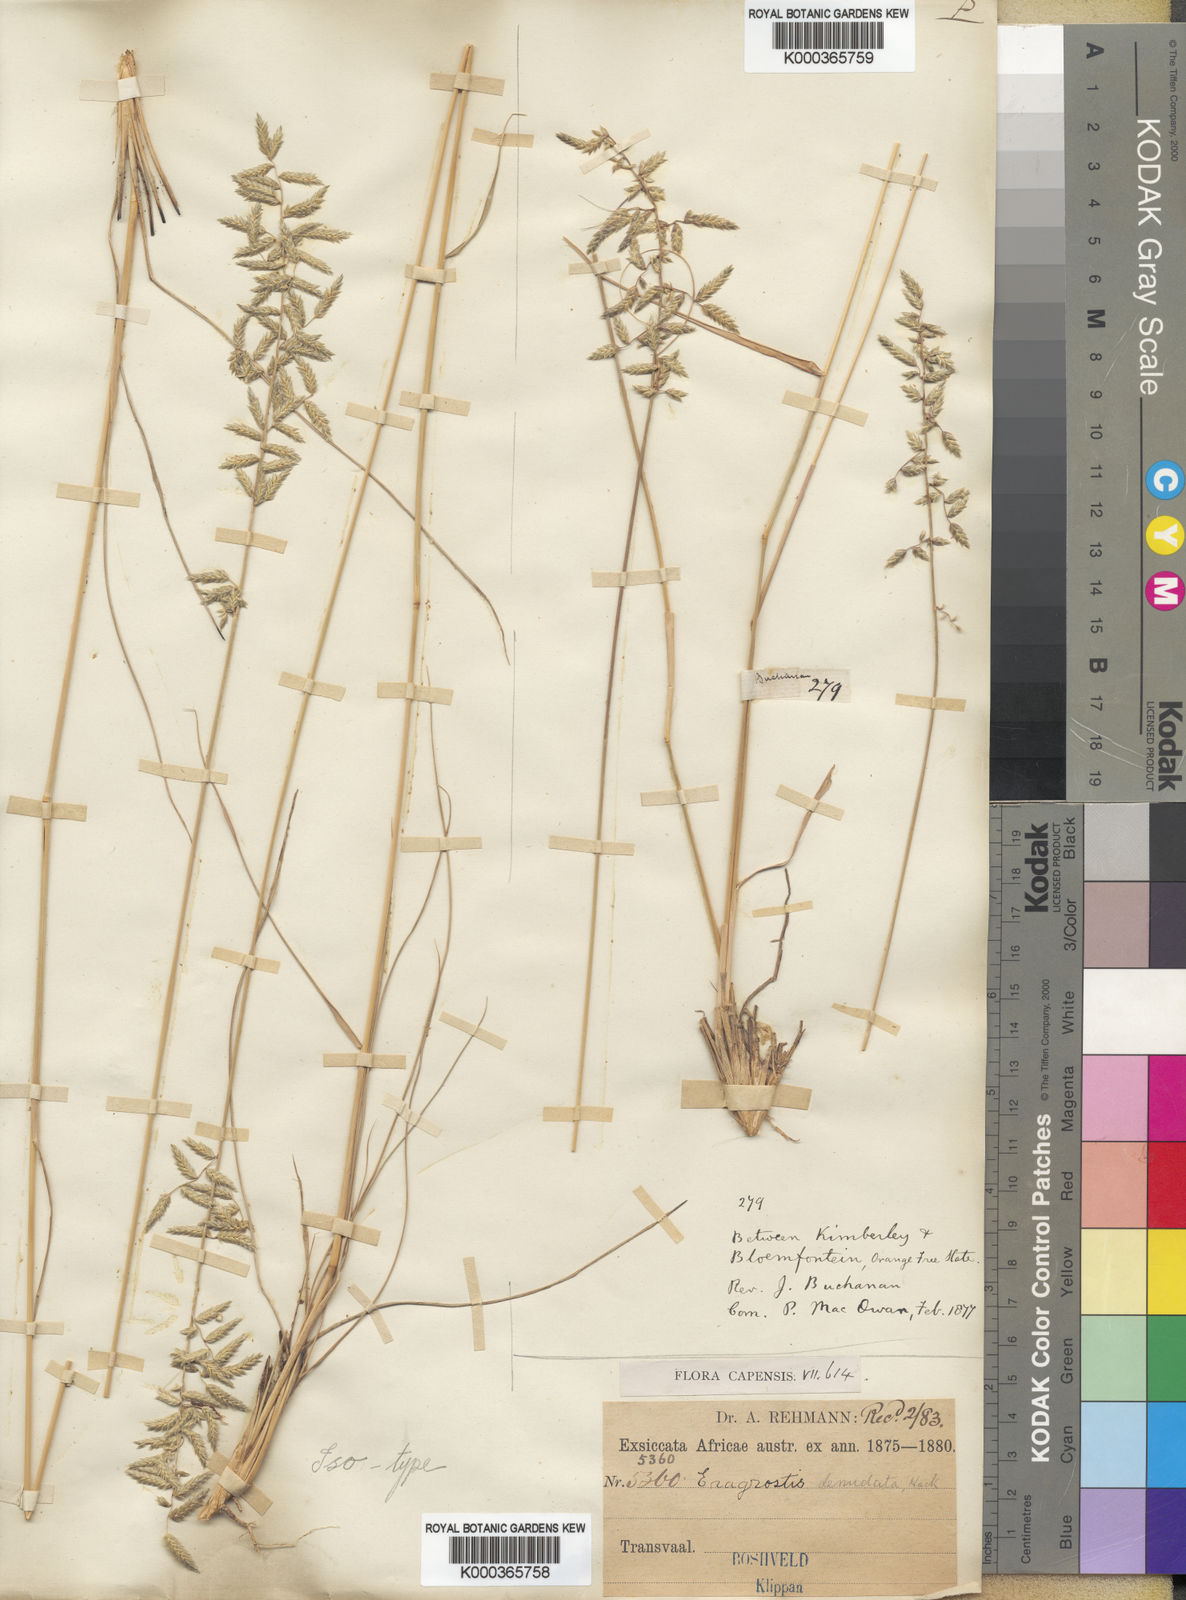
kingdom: Plantae
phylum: Tracheophyta
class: Liliopsida
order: Poales
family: Poaceae
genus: Eragrostis
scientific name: Eragrostis
